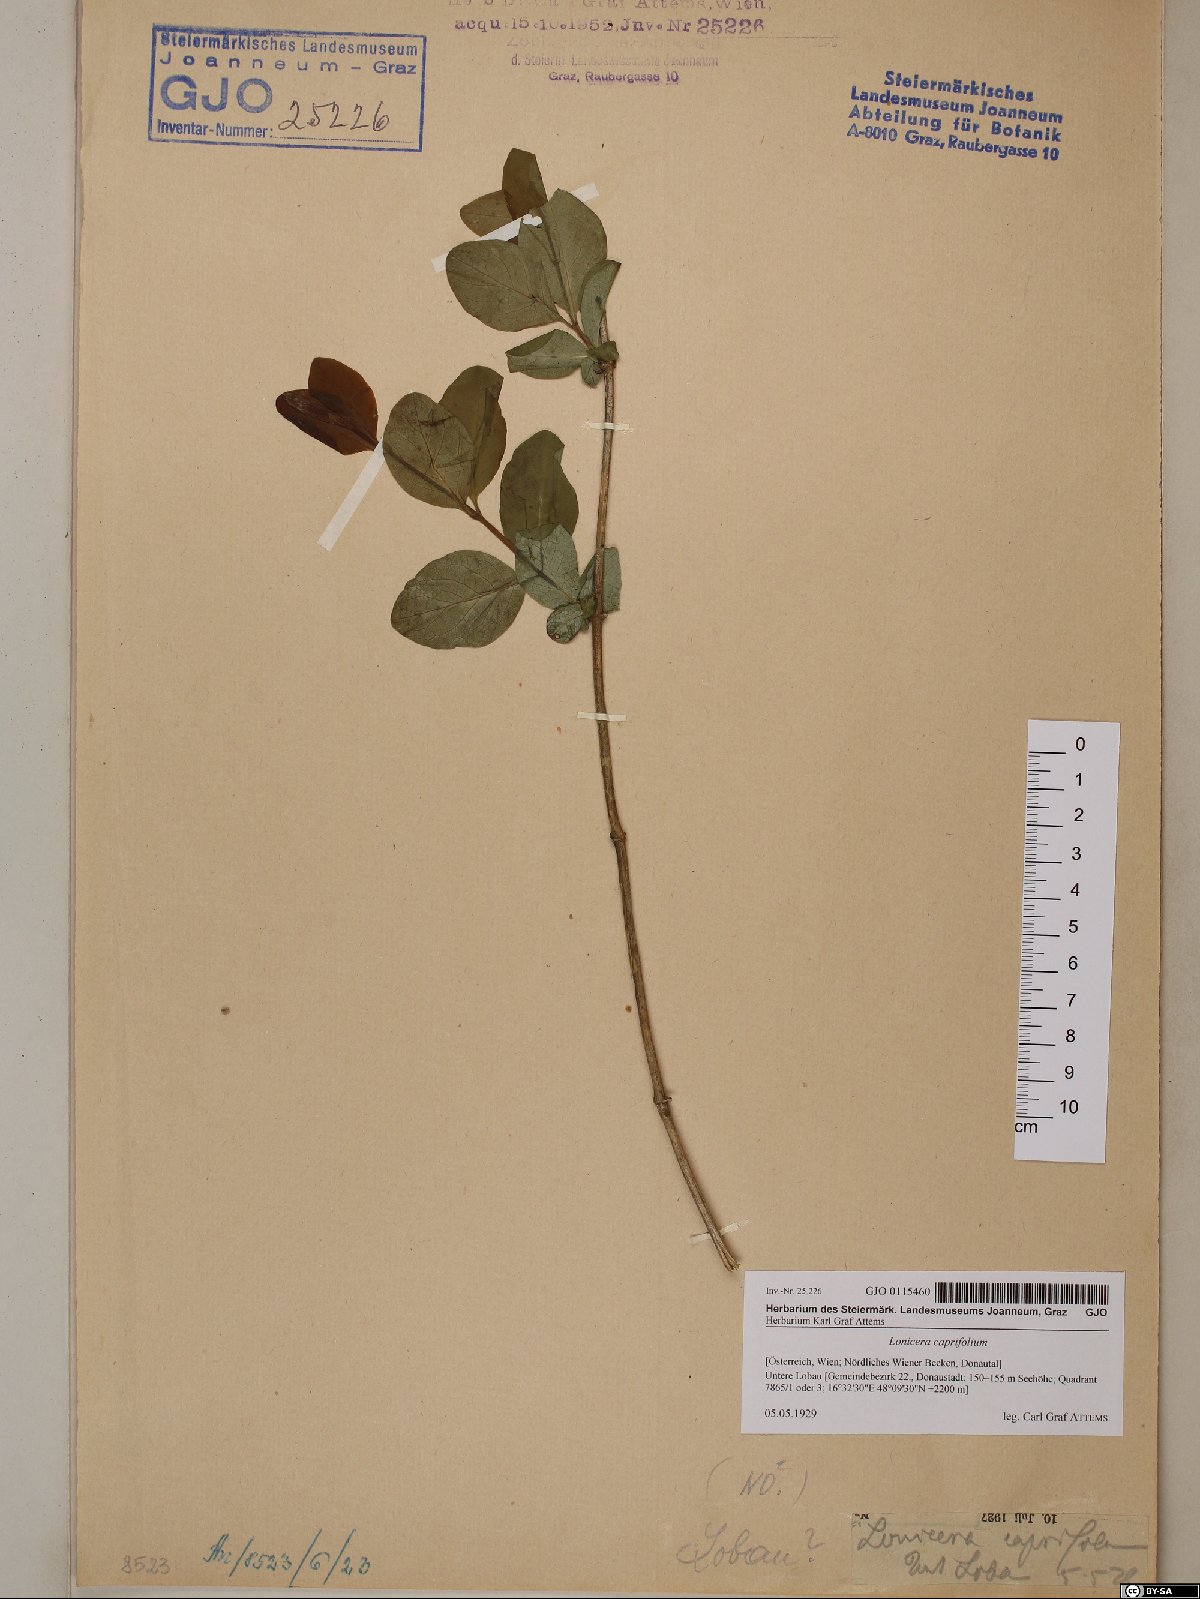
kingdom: Plantae
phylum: Tracheophyta
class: Magnoliopsida
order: Dipsacales
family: Caprifoliaceae
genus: Lonicera
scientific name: Lonicera caprifolium
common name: Perfoliate honeysuckle
